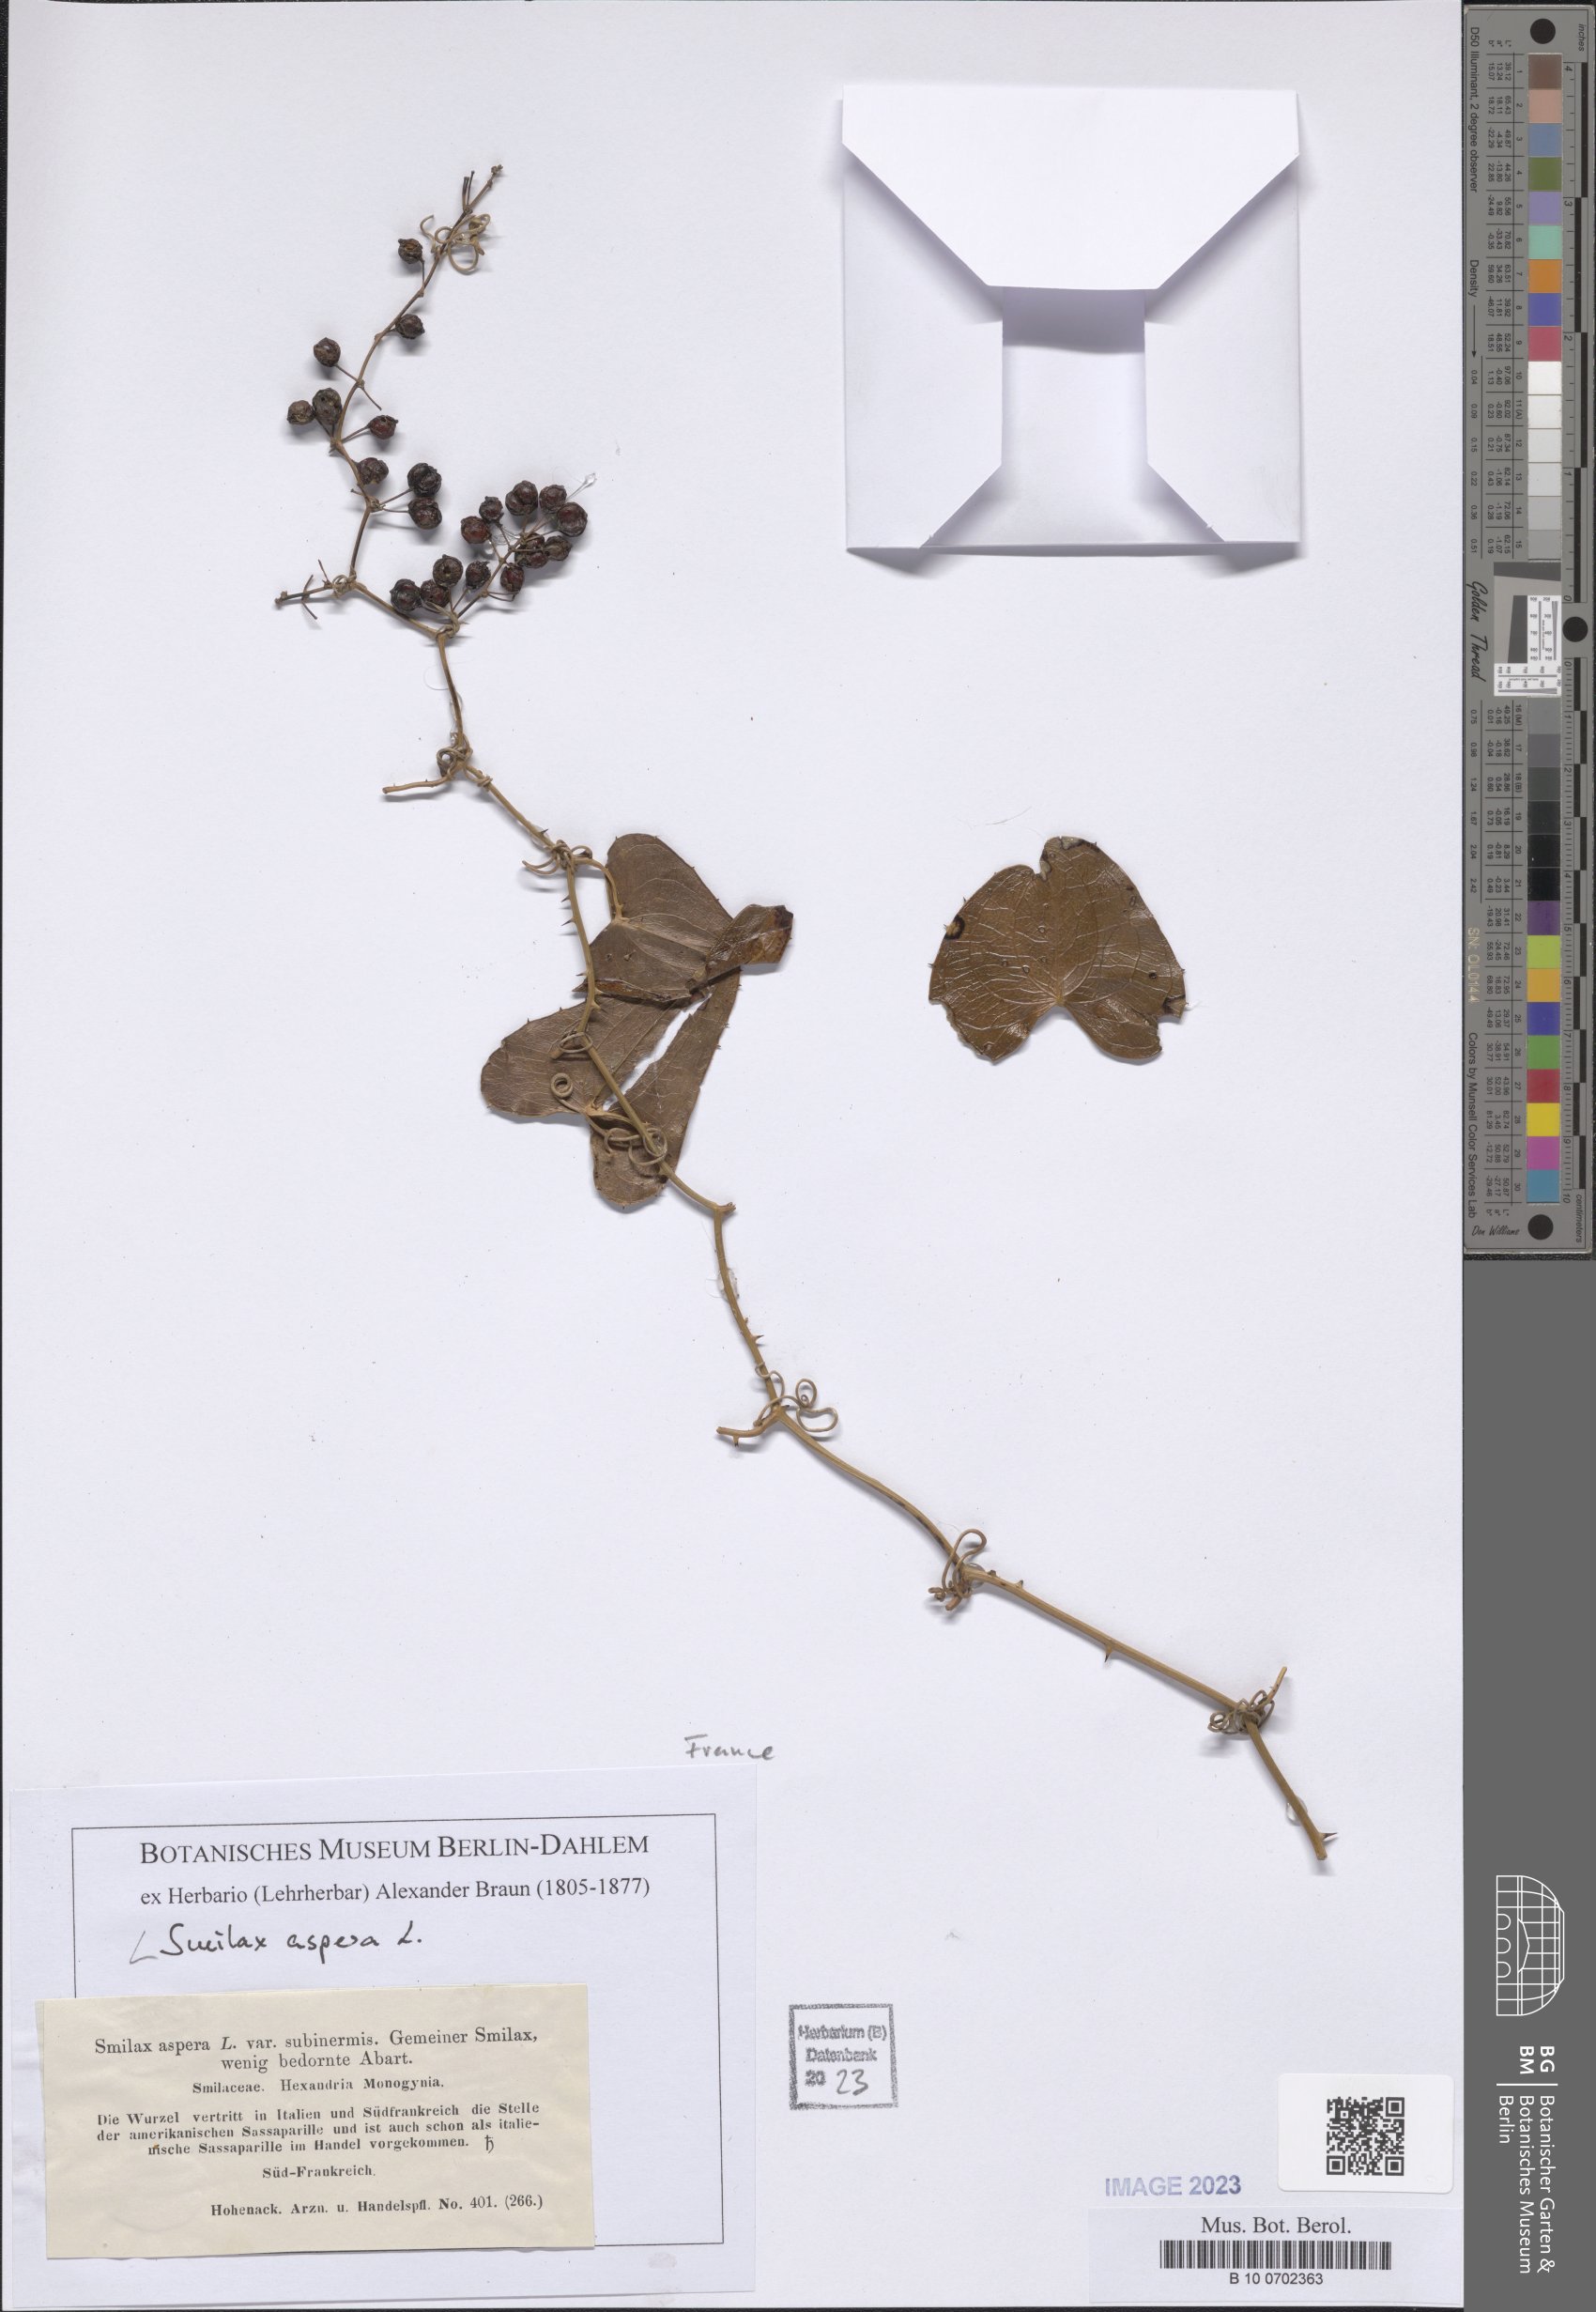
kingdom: Plantae
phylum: Tracheophyta
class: Liliopsida
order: Liliales
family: Smilacaceae
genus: Smilax
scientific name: Smilax aspera
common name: Common smilax
